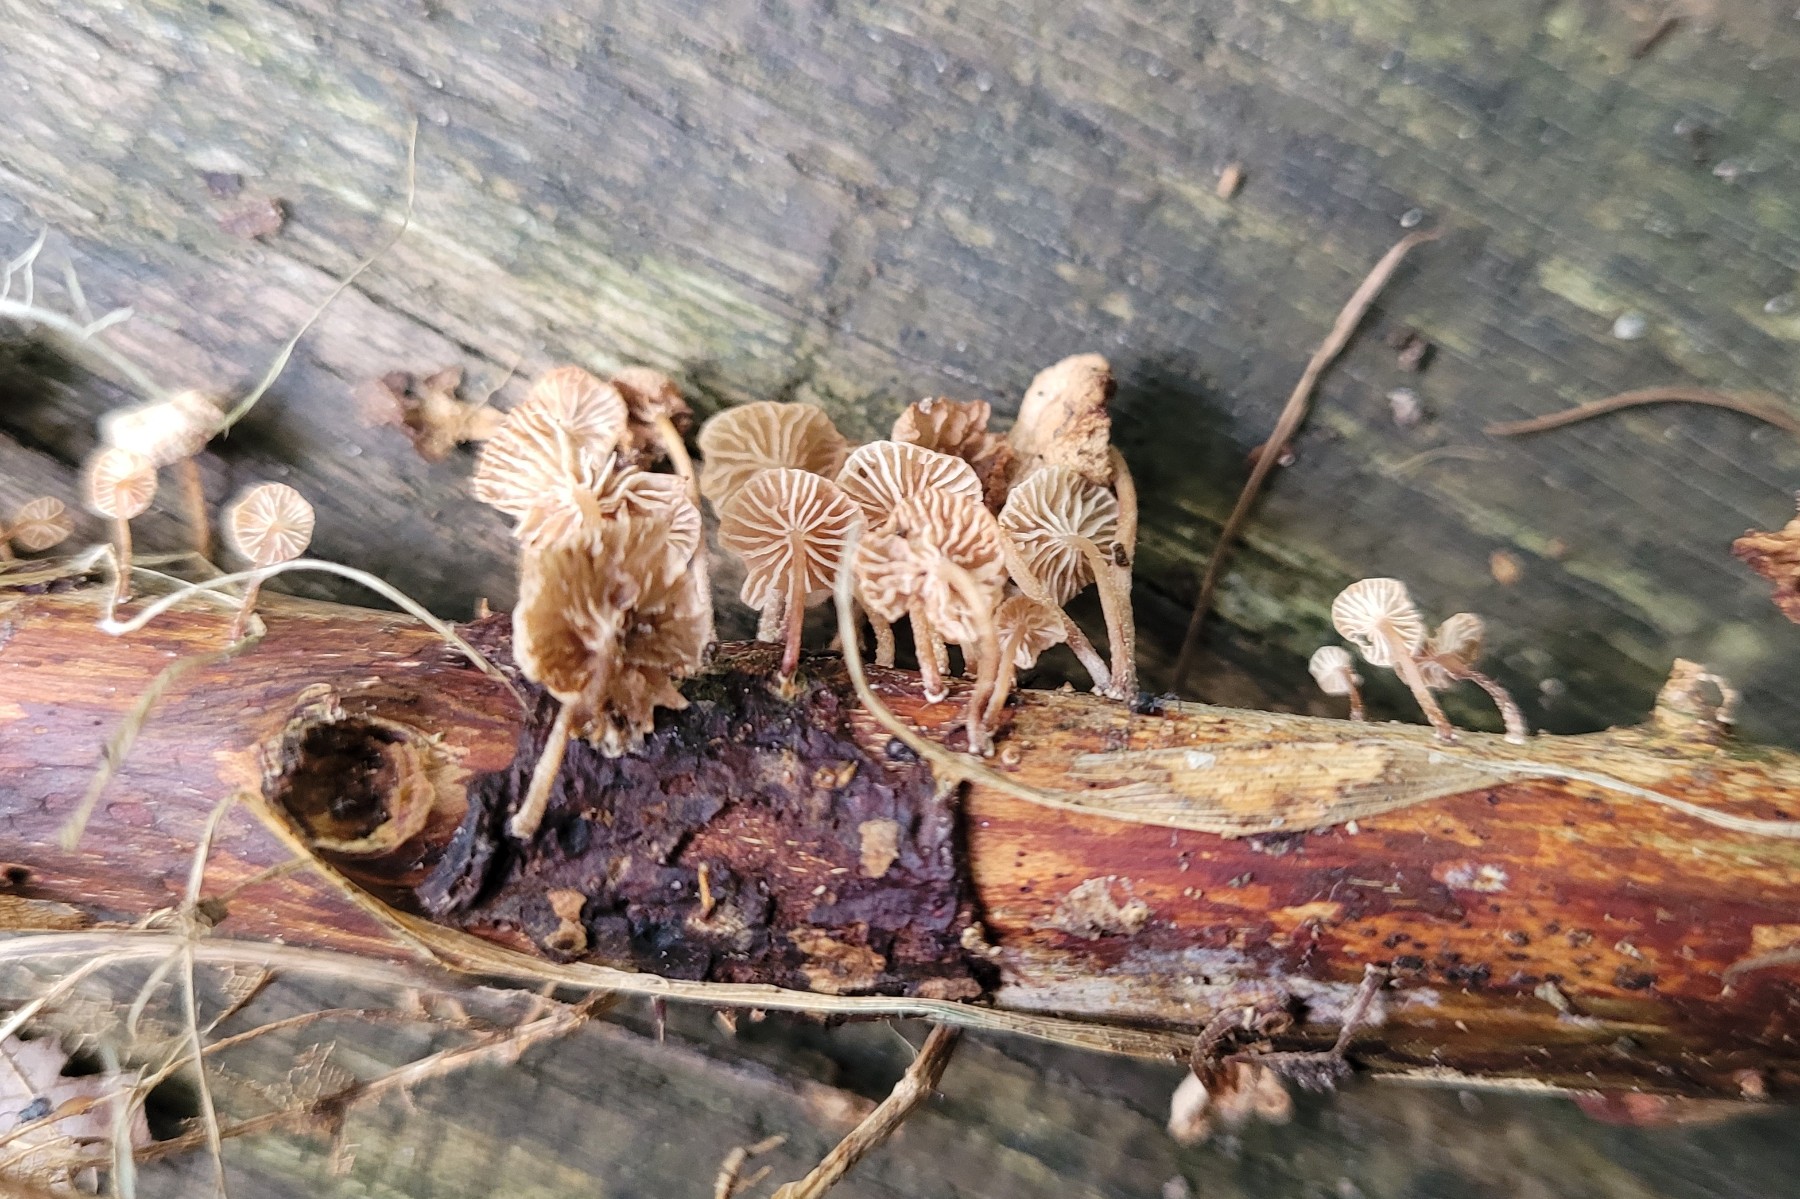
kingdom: Fungi
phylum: Basidiomycota
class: Agaricomycetes
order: Agaricales
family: Omphalotaceae
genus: Collybiopsis
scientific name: Collybiopsis ramealis
